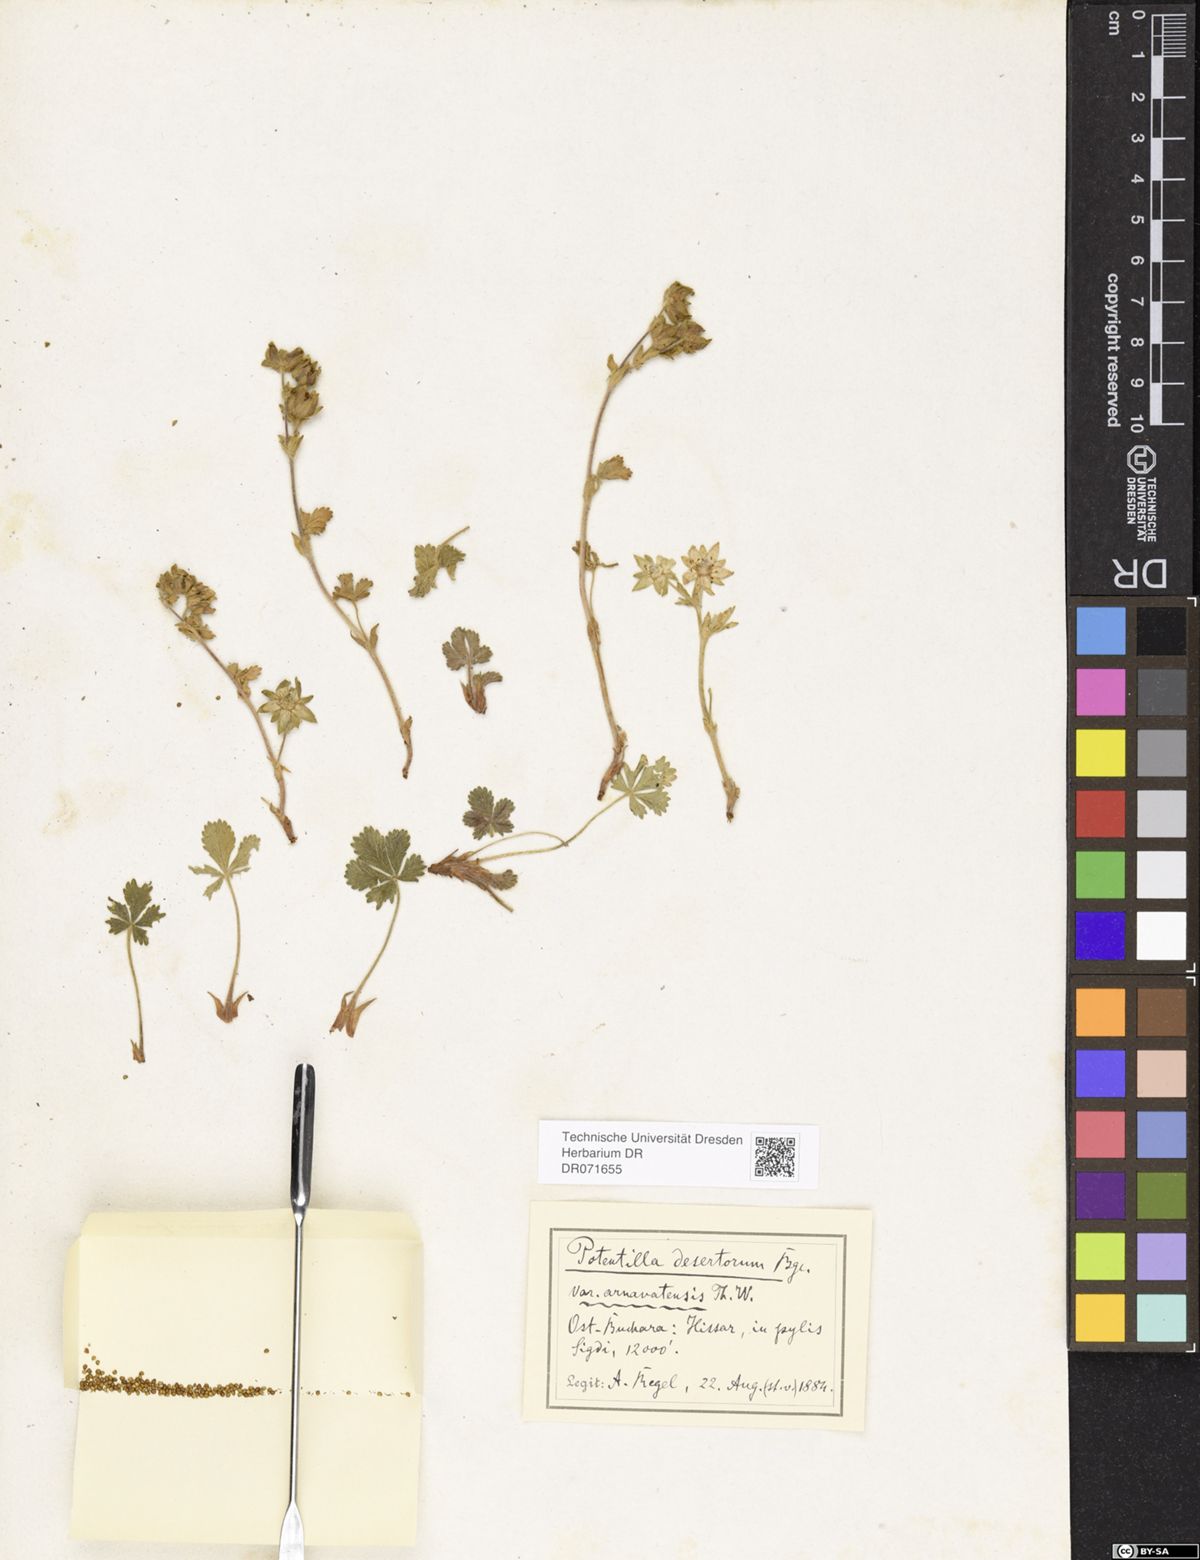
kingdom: Plantae
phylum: Tracheophyta
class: Magnoliopsida
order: Rosales
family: Rosaceae
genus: Potentilla
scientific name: Potentilla desertorum
